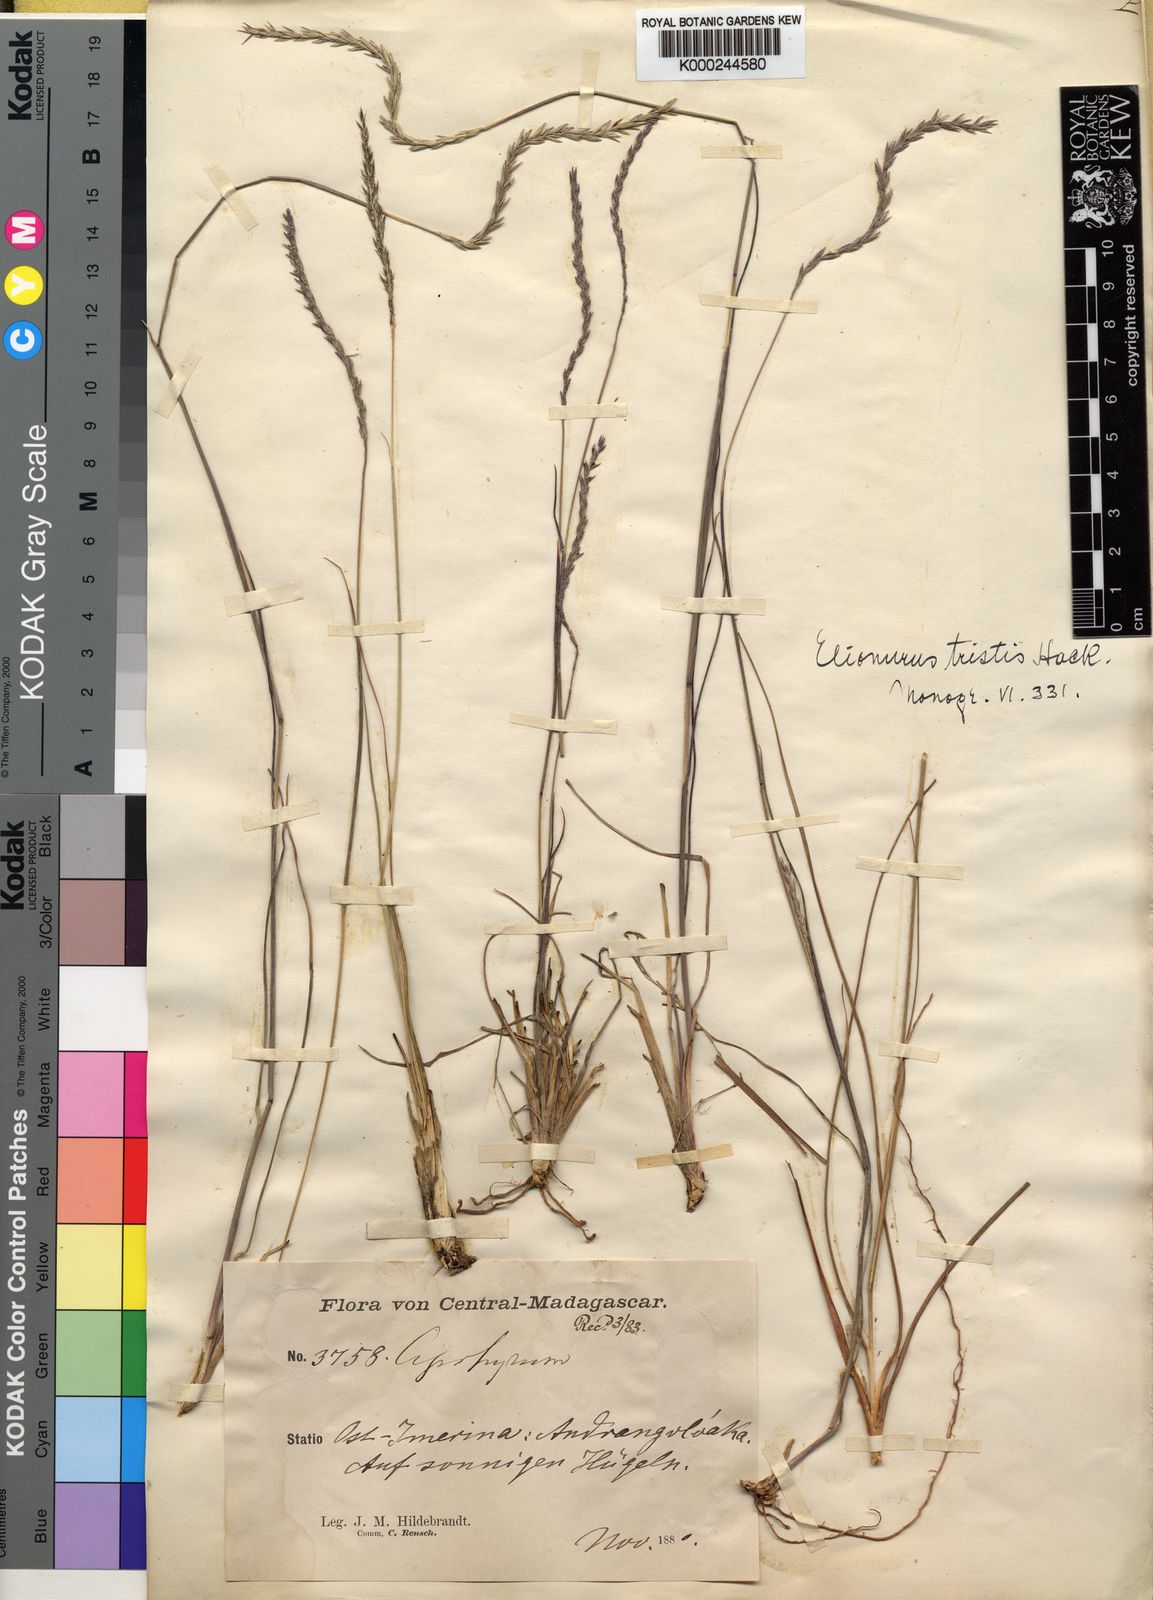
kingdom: Plantae
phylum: Tracheophyta
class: Liliopsida
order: Poales
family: Poaceae
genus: Elionurus
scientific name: Elionurus tristis
